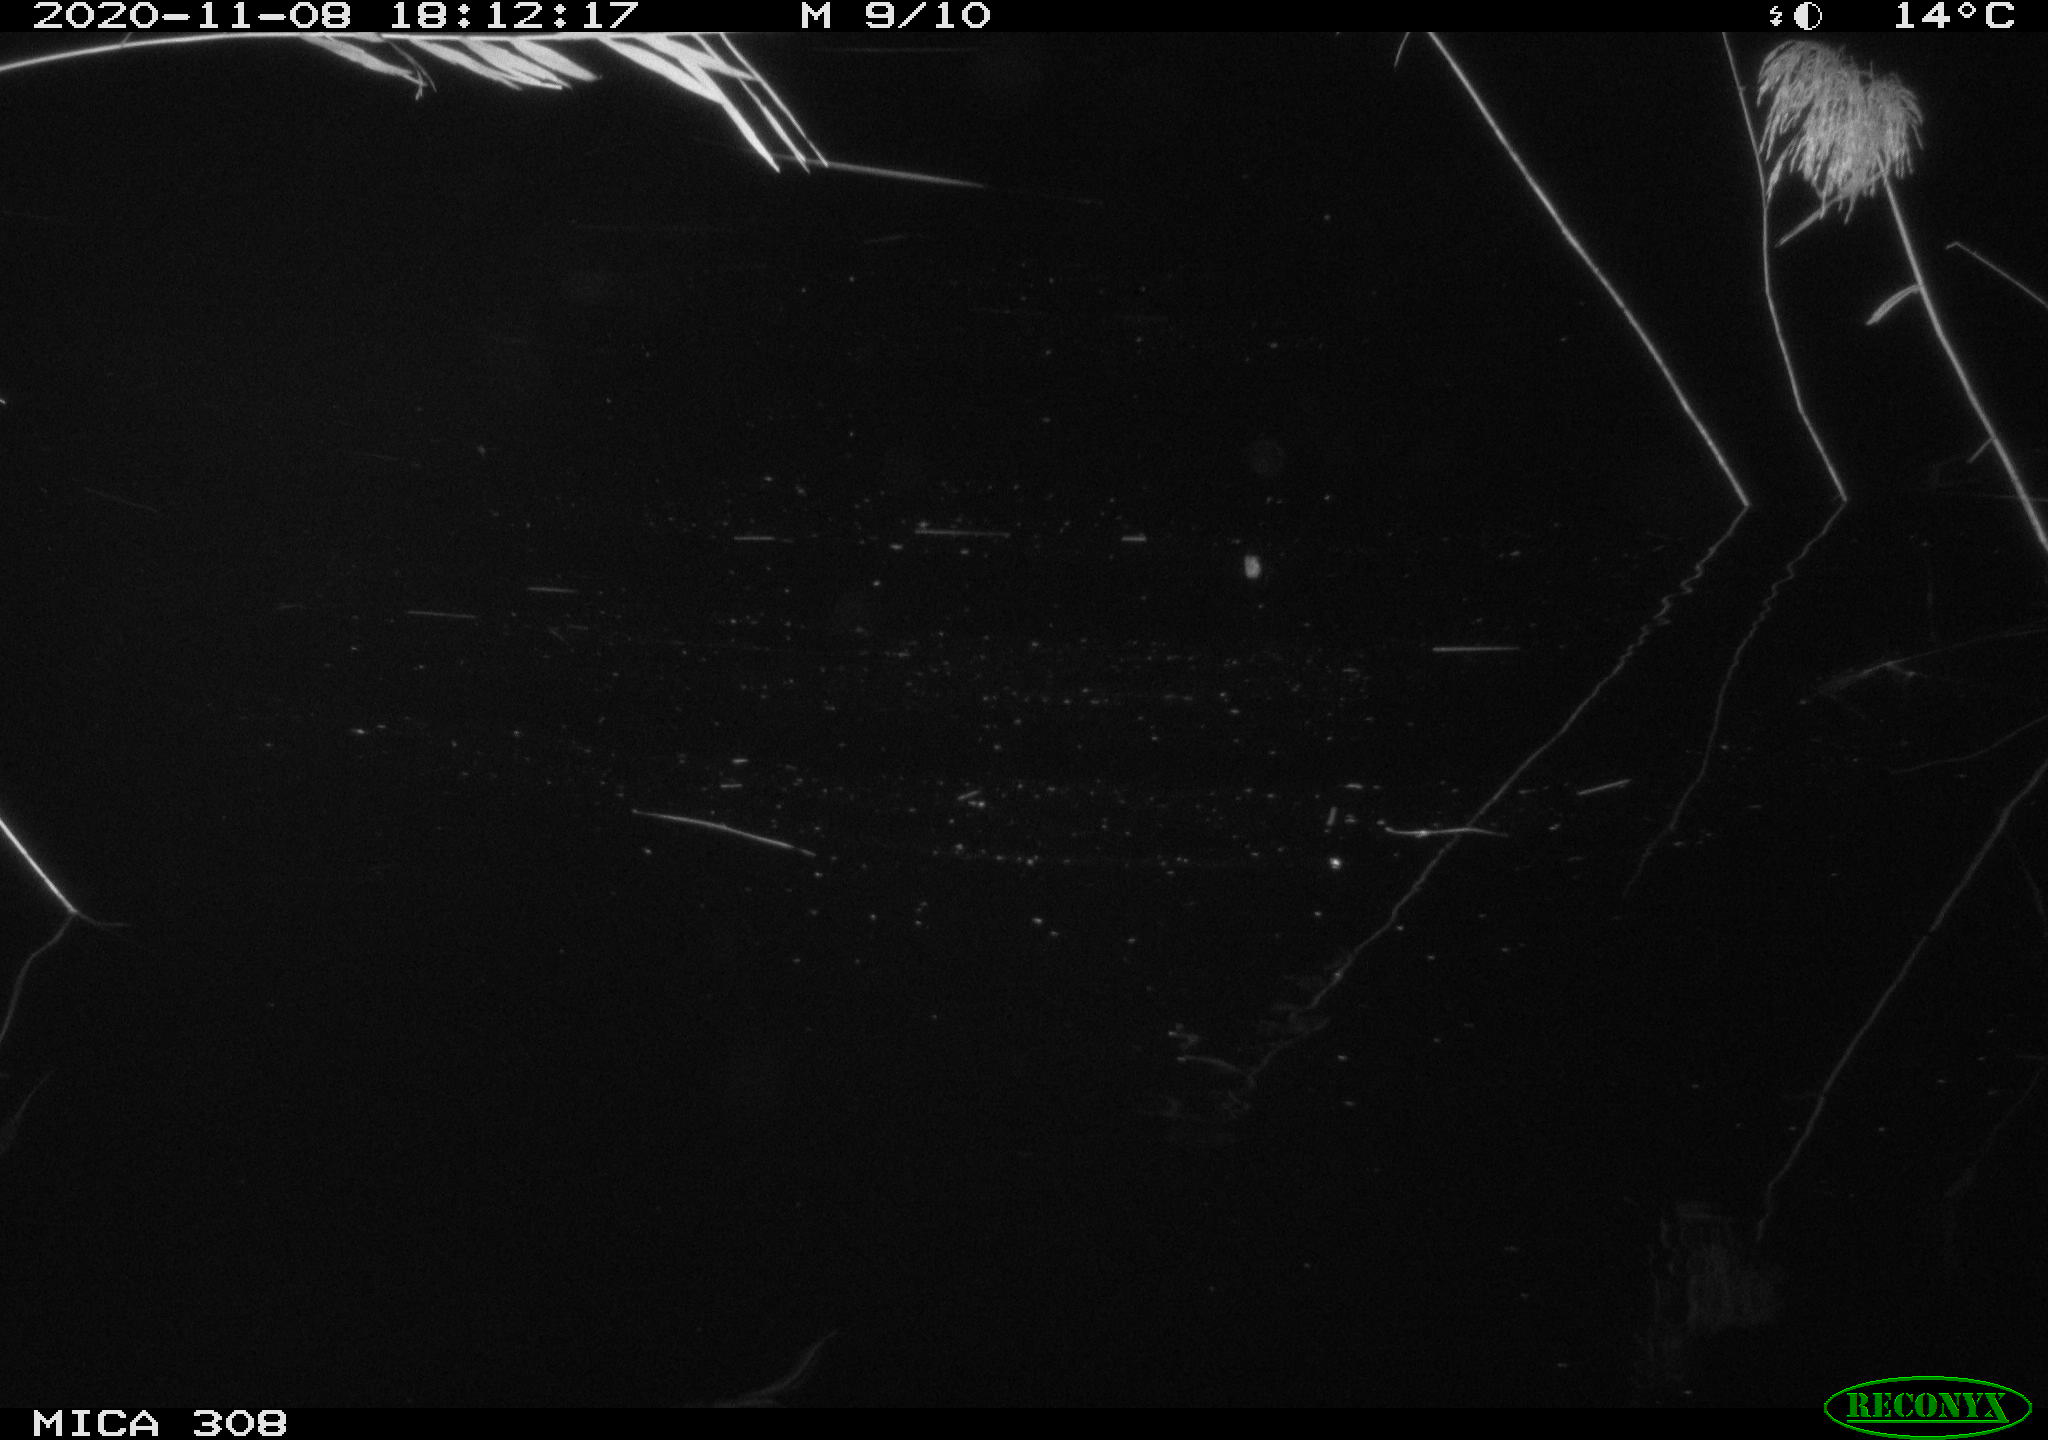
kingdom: Animalia
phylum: Chordata
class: Mammalia
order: Rodentia
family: Muridae
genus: Rattus
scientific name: Rattus norvegicus
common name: Brown rat
